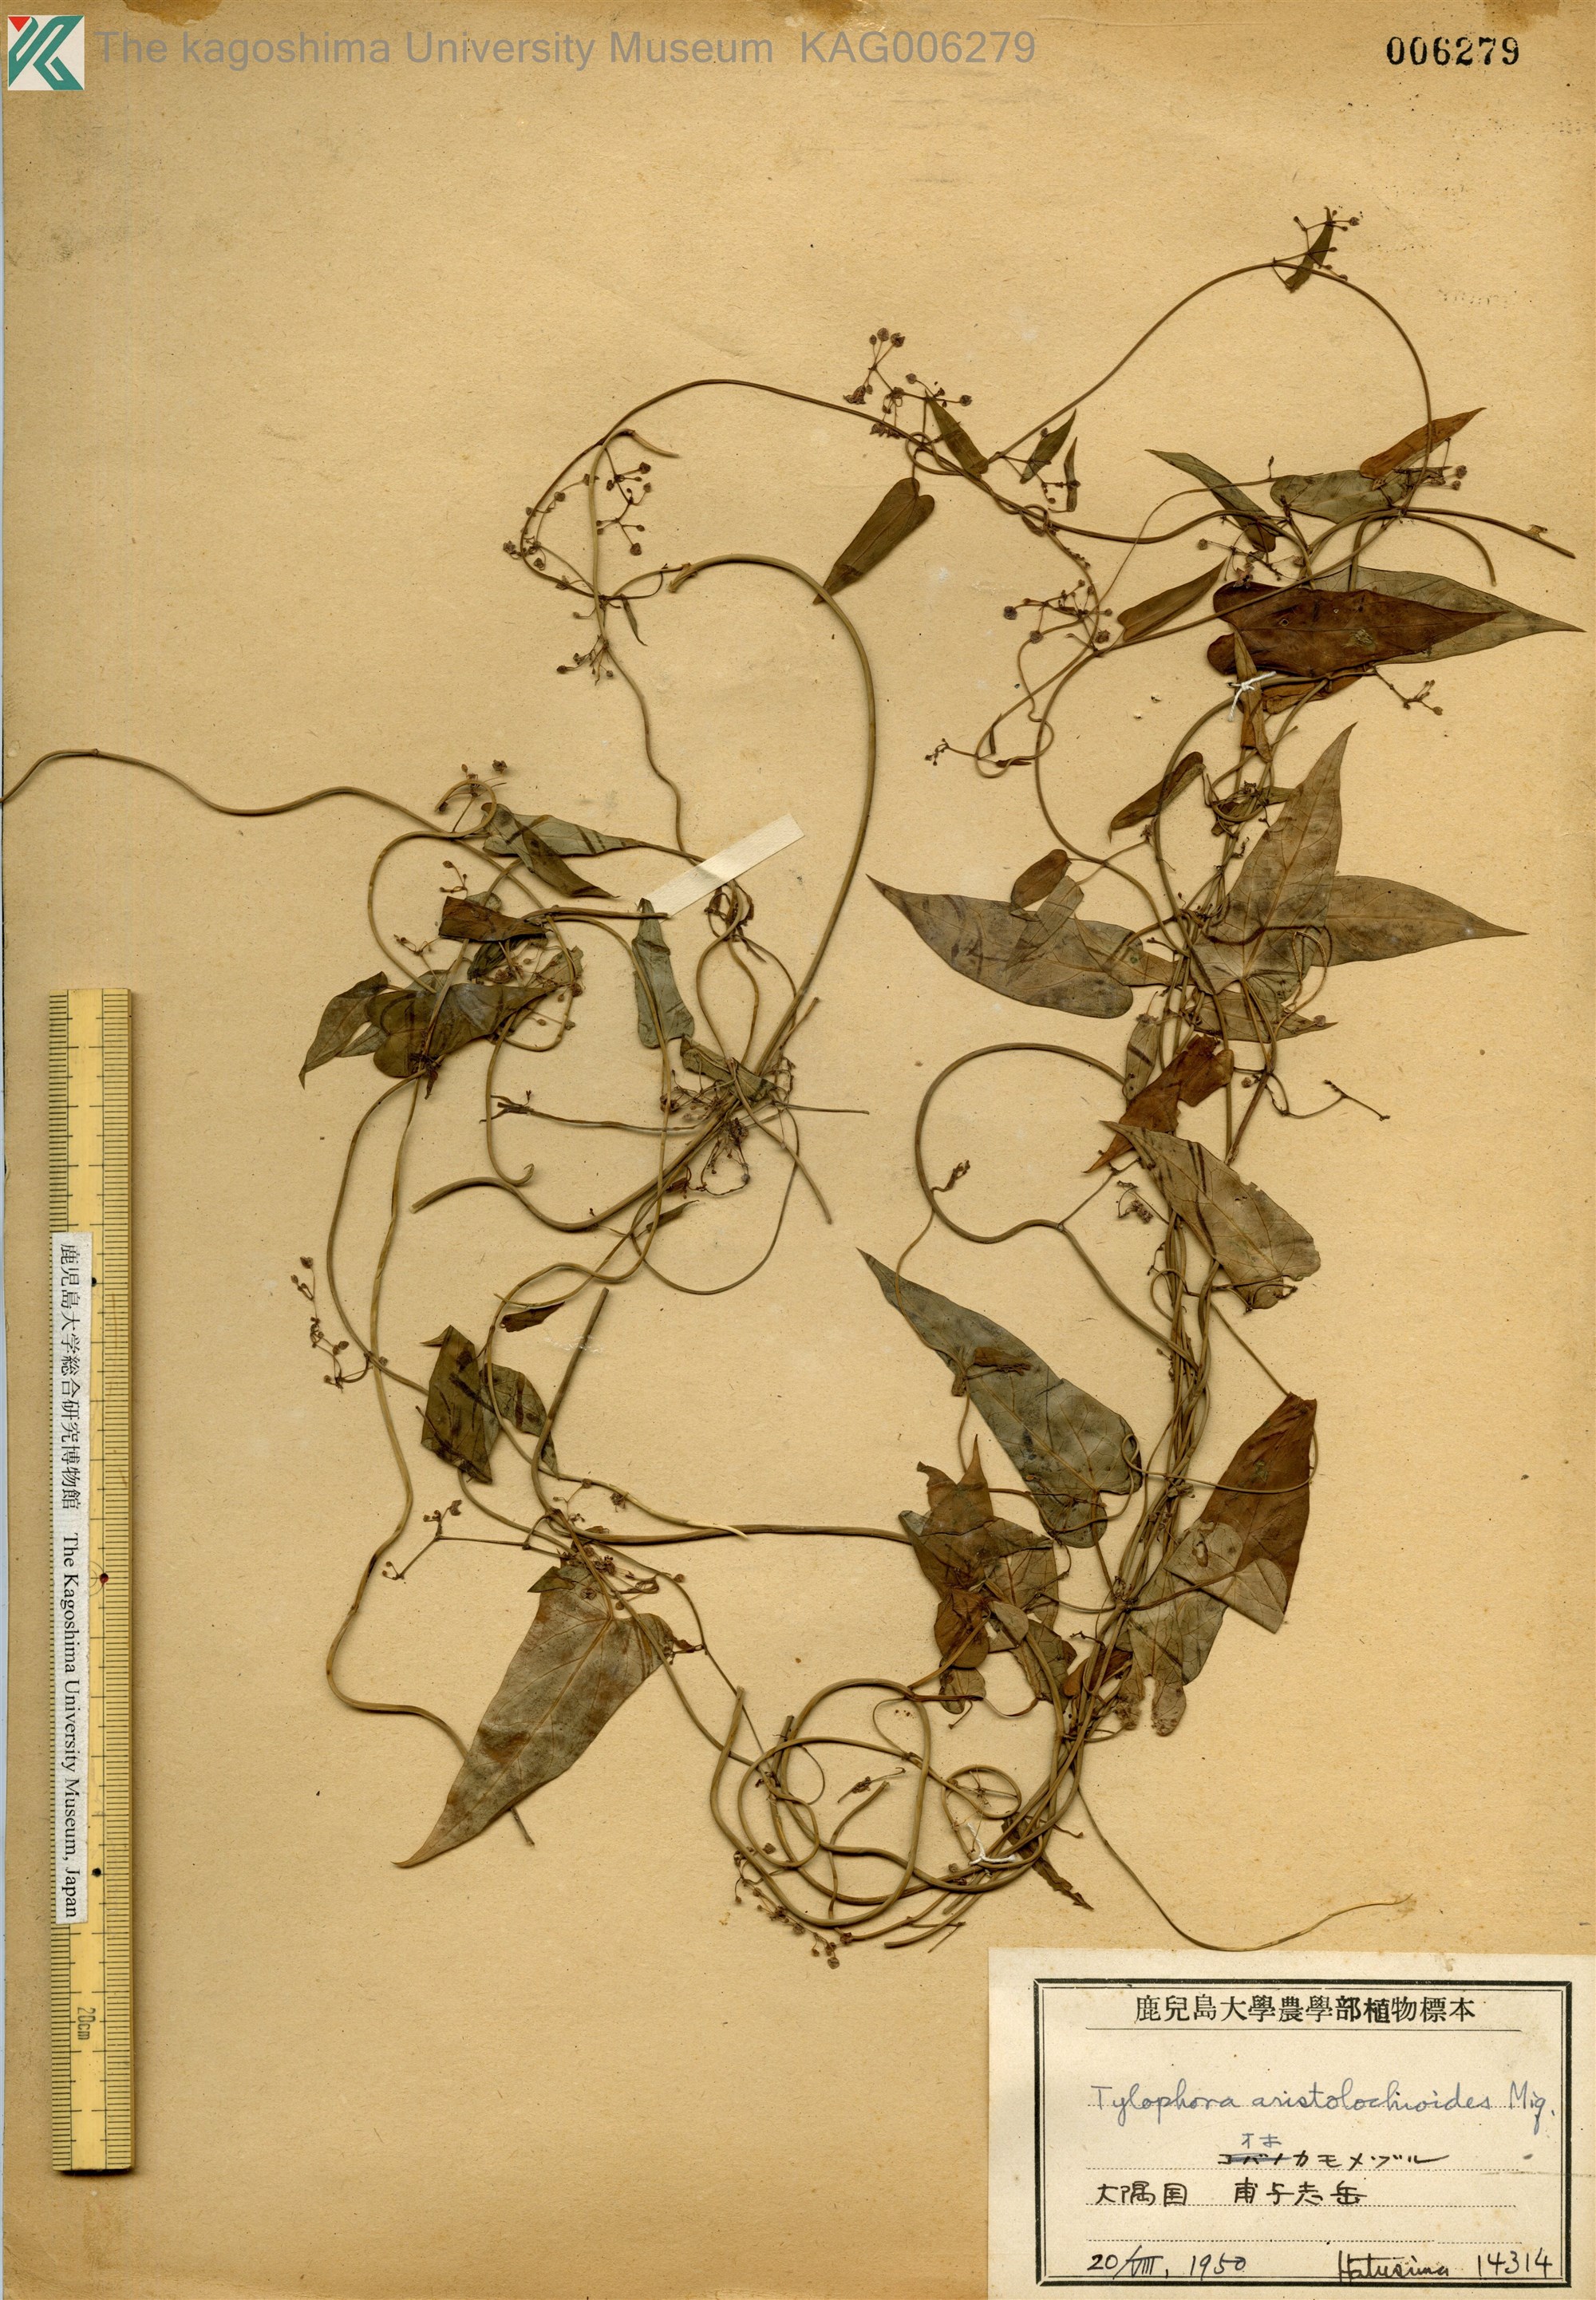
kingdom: Plantae
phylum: Tracheophyta
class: Magnoliopsida
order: Gentianales
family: Apocynaceae
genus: Vincetoxicum
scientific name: Vincetoxicum aristolochioides
